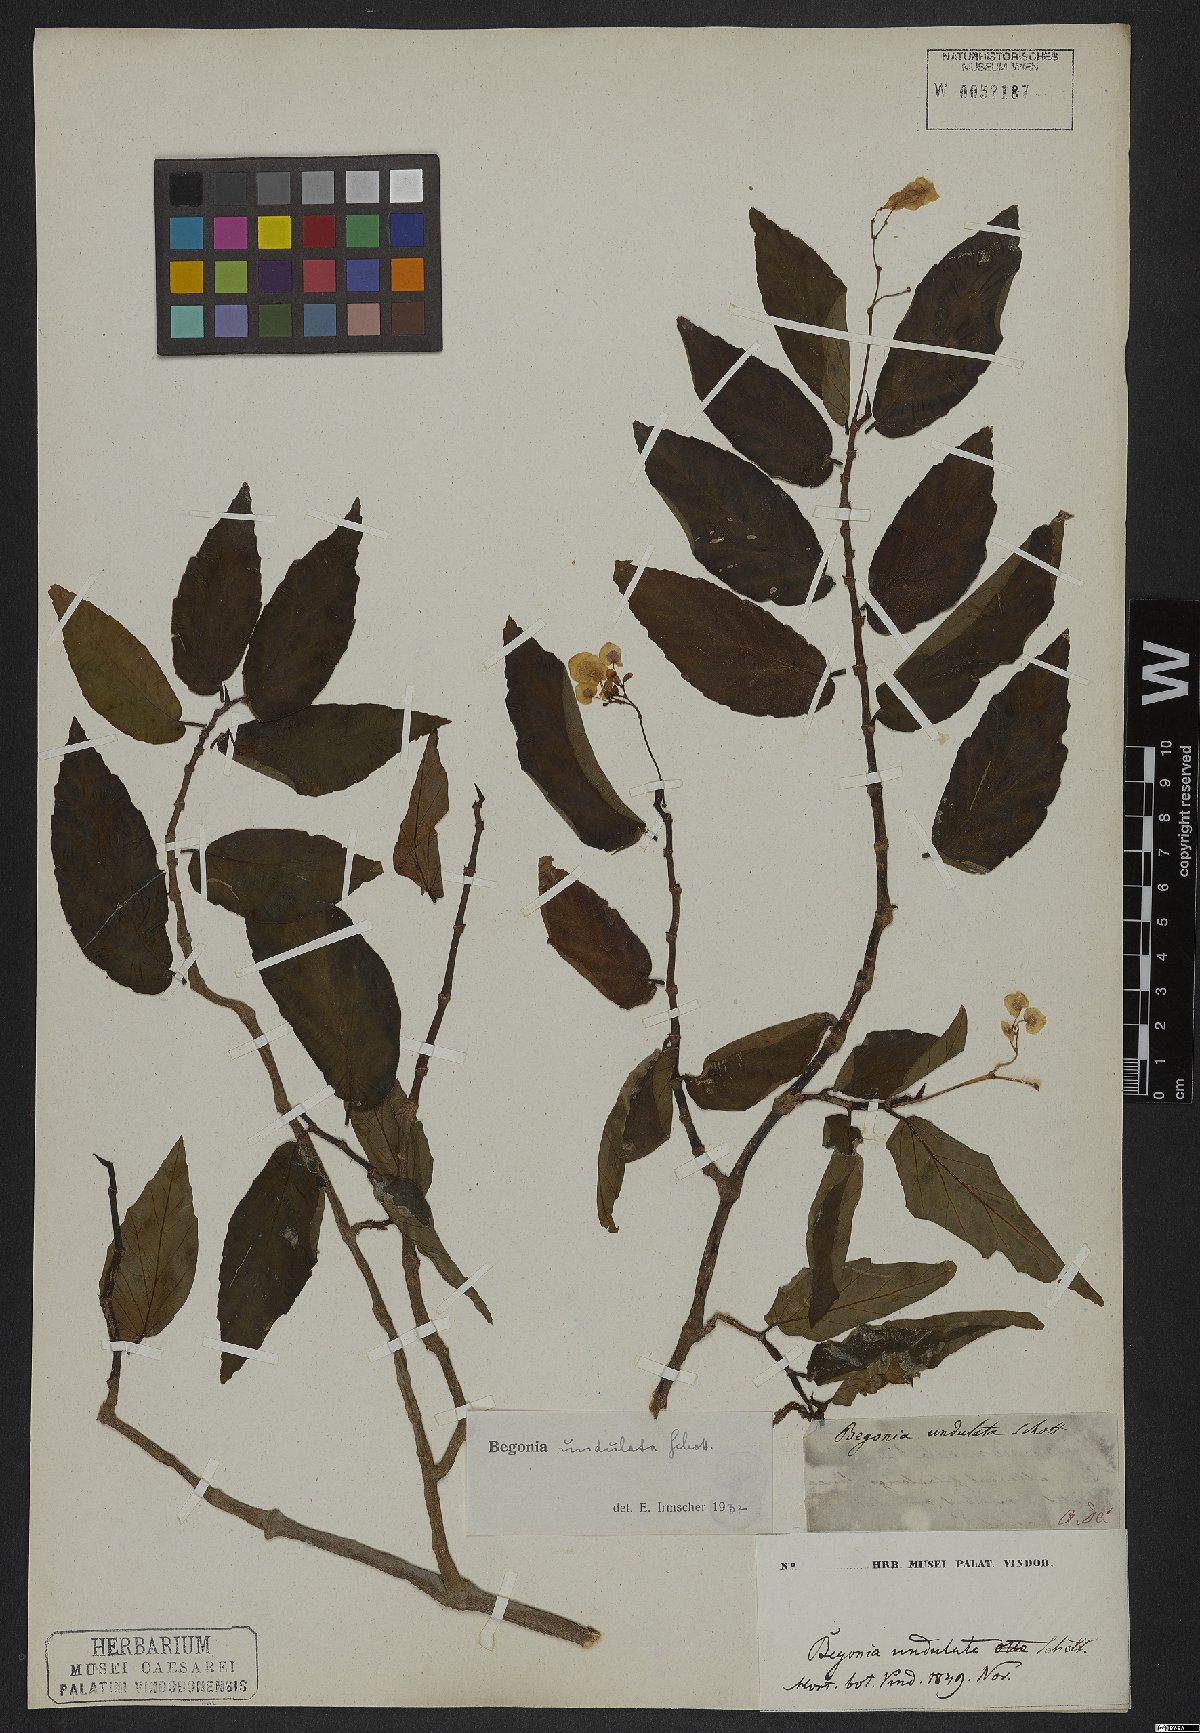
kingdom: Plantae
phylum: Tracheophyta
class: Magnoliopsida
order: Cucurbitales
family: Begoniaceae
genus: Begonia
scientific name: Begonia undulata
